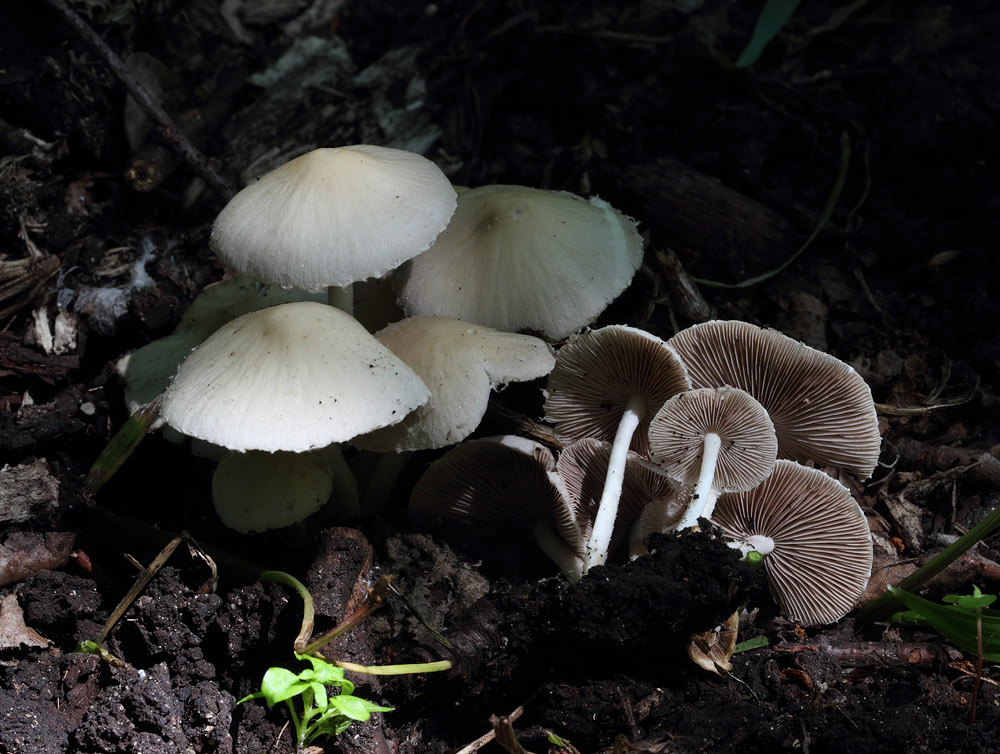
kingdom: Fungi
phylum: Basidiomycota
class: Agaricomycetes
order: Agaricales
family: Psathyrellaceae
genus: Candolleomyces
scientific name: Candolleomyces candolleanus
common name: Candolles mørkhat
